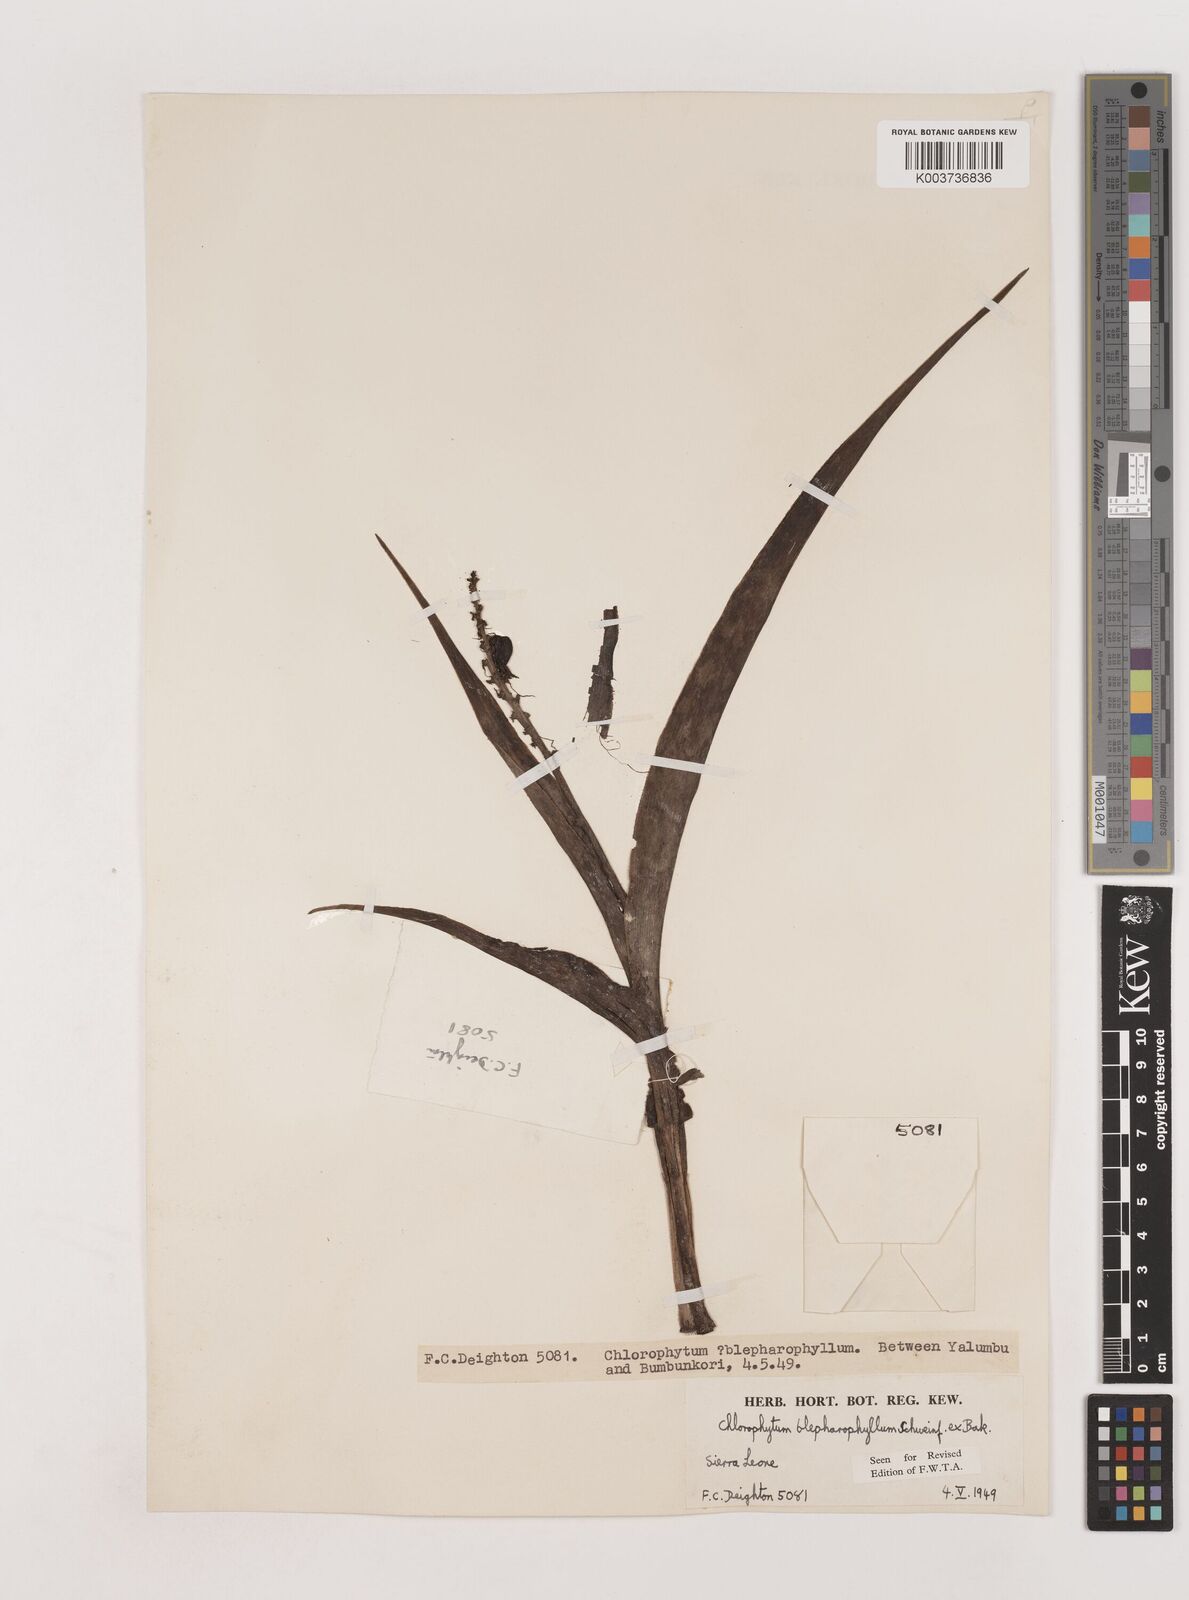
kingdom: Plantae
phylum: Tracheophyta
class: Liliopsida
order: Asparagales
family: Asparagaceae
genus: Chlorophytum
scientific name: Chlorophytum blepharophyllum
